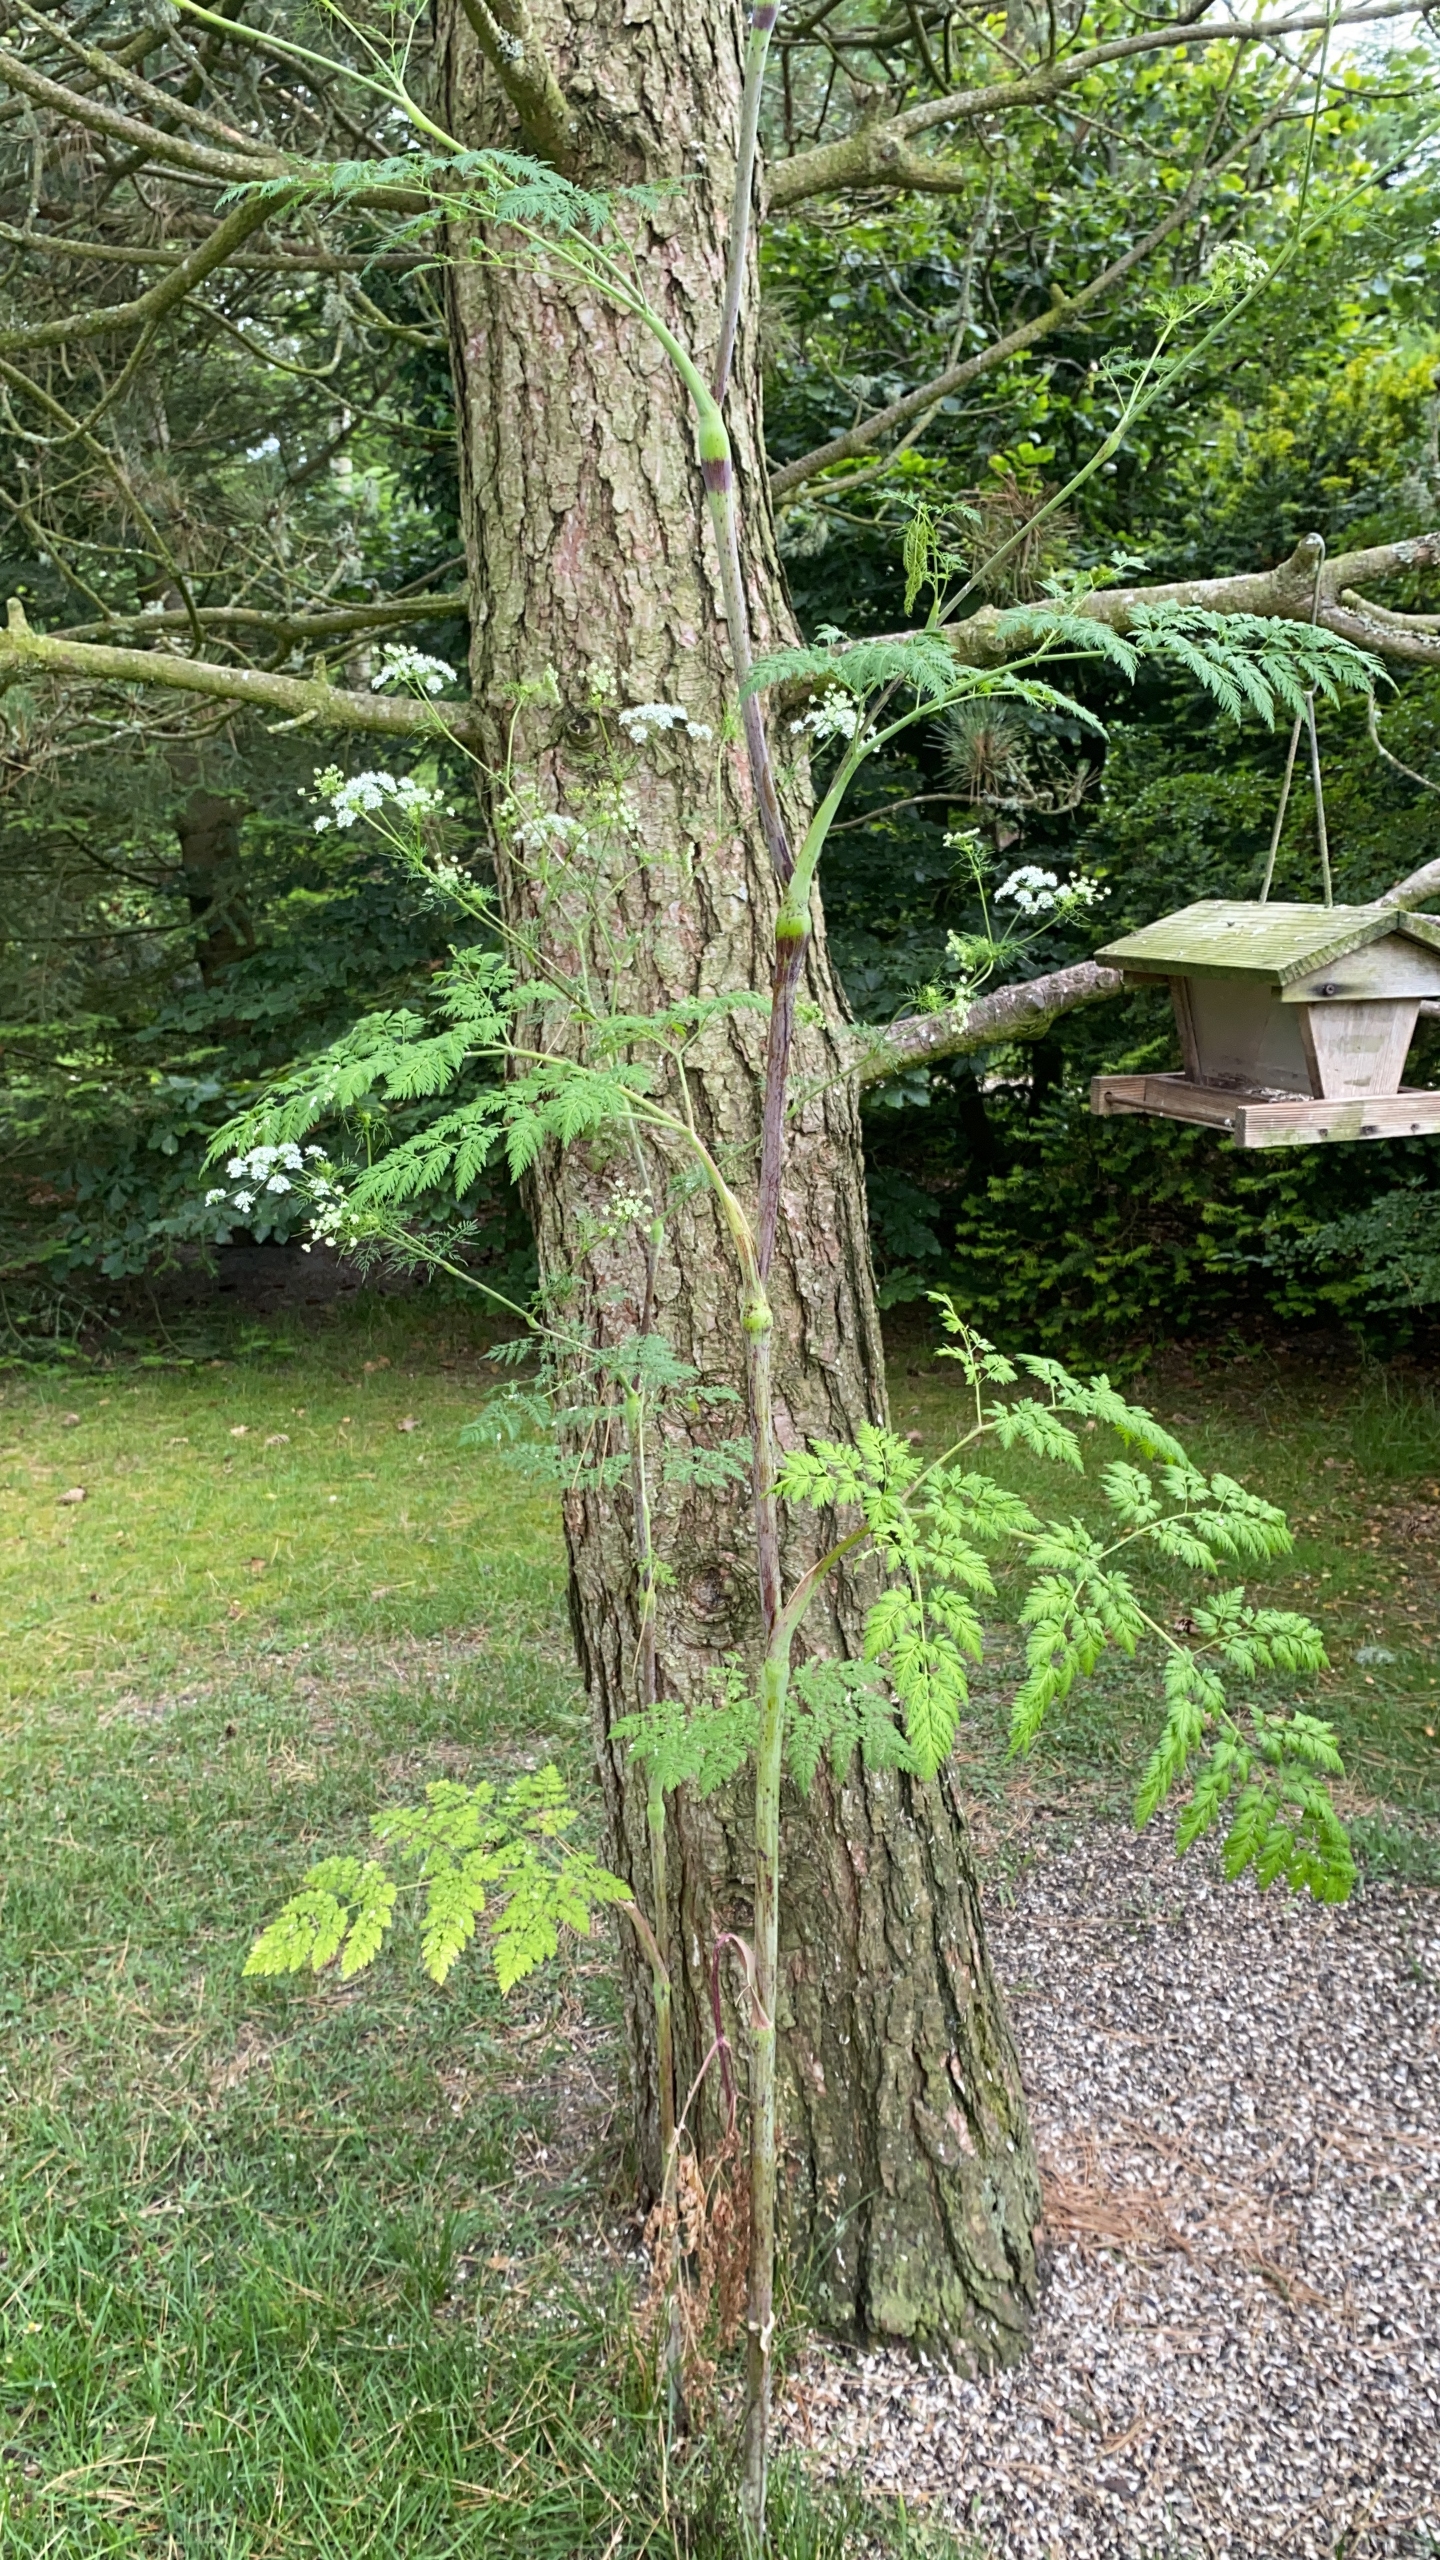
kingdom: Plantae
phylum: Tracheophyta
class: Magnoliopsida
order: Apiales
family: Apiaceae
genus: Chaerophyllum
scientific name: Chaerophyllum bulbosum
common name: Knoldet hulsvøb
